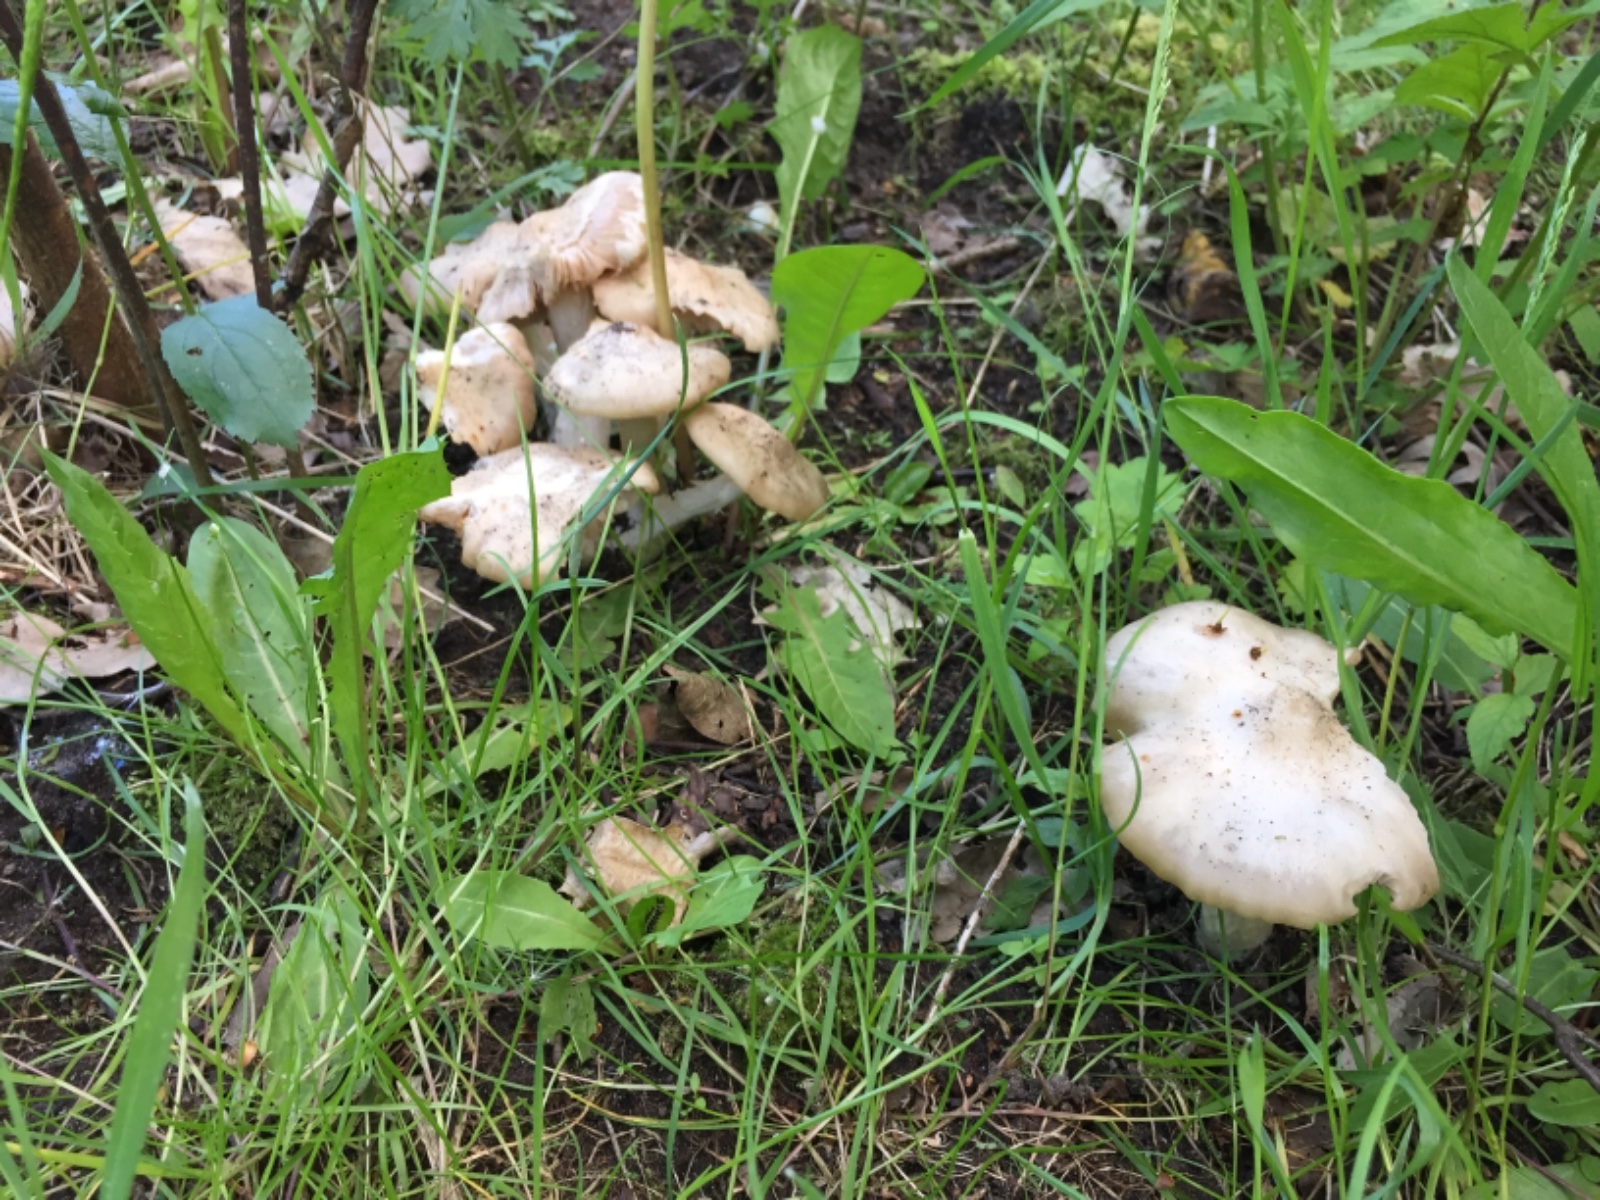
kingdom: Fungi
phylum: Basidiomycota
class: Agaricomycetes
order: Agaricales
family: Entolomataceae
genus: Entoloma
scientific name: Entoloma sepium
